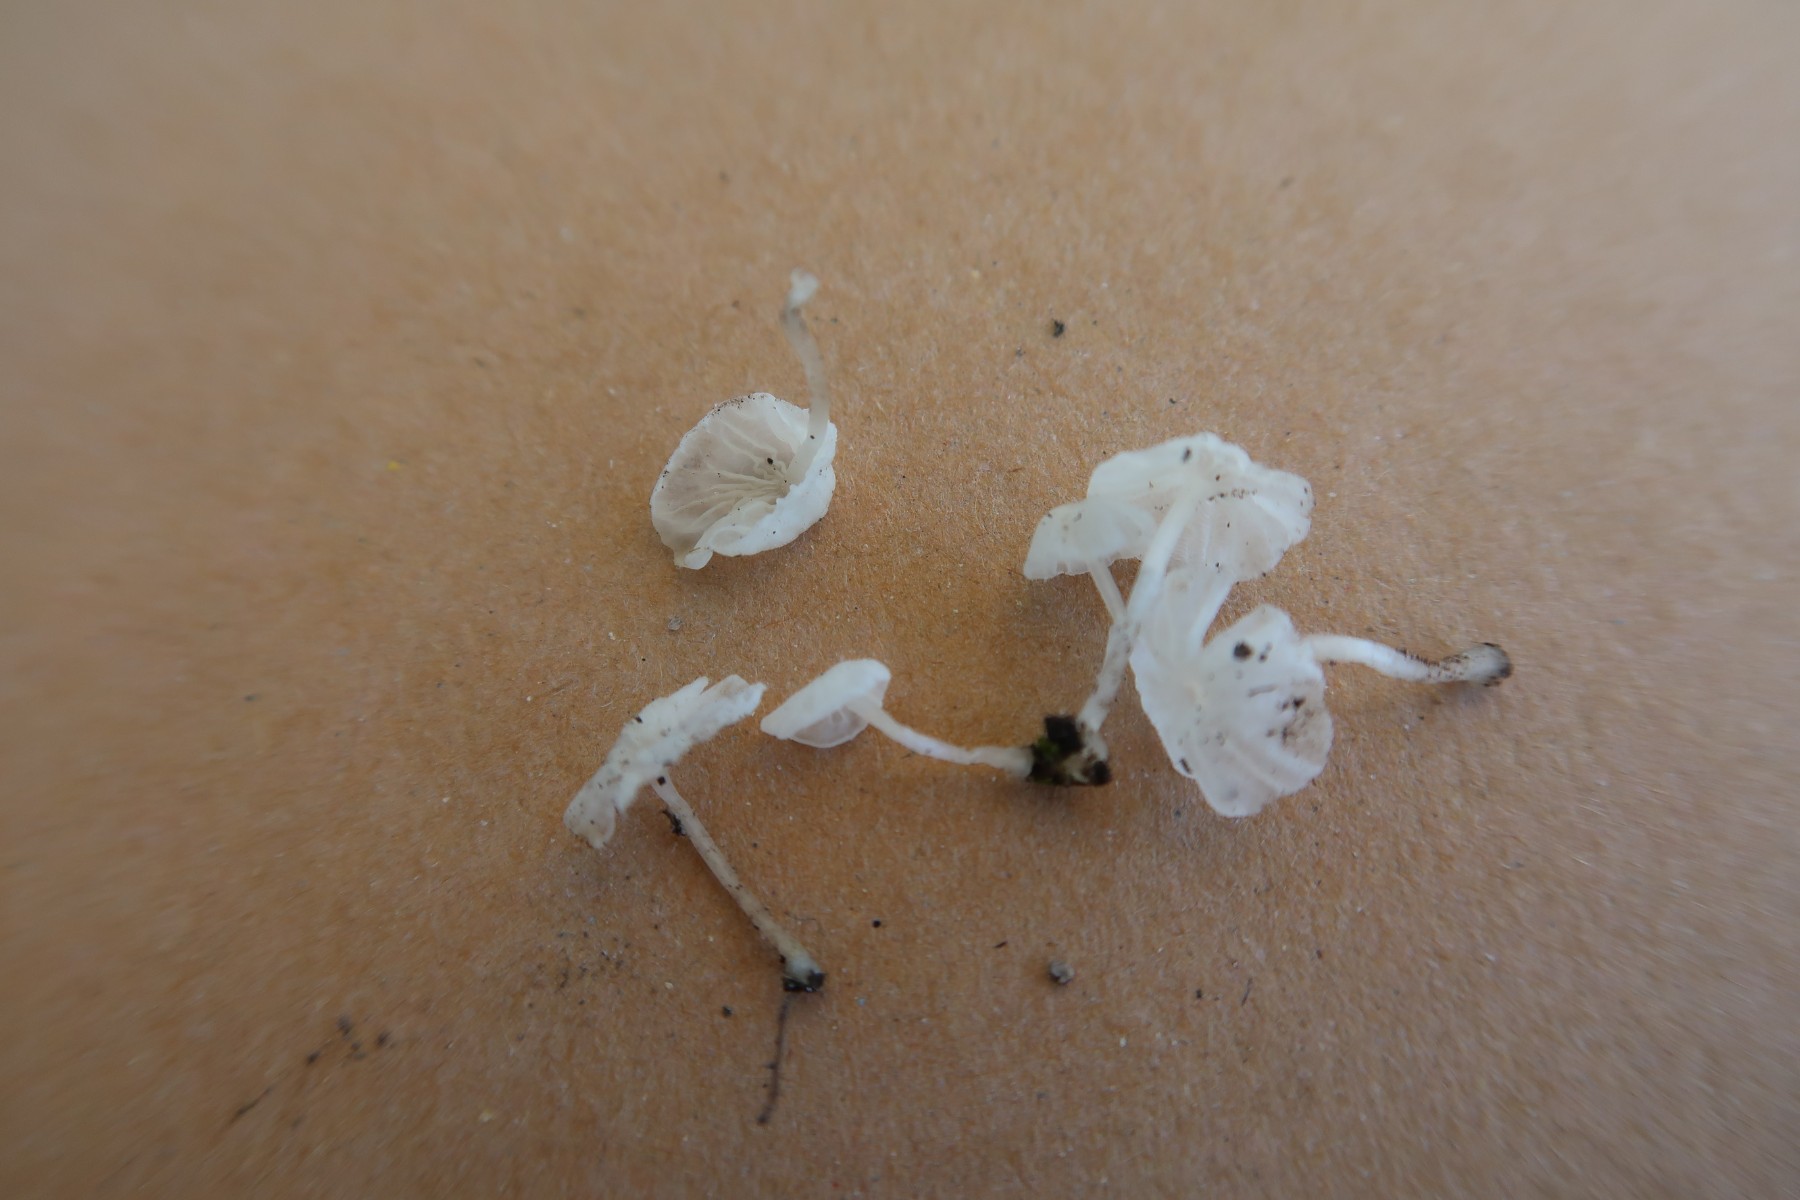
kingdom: Fungi
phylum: Basidiomycota
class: Agaricomycetes
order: Agaricales
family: Tricholomataceae
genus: Delicatula
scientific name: Delicatula integrella
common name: slørhuesvamp
